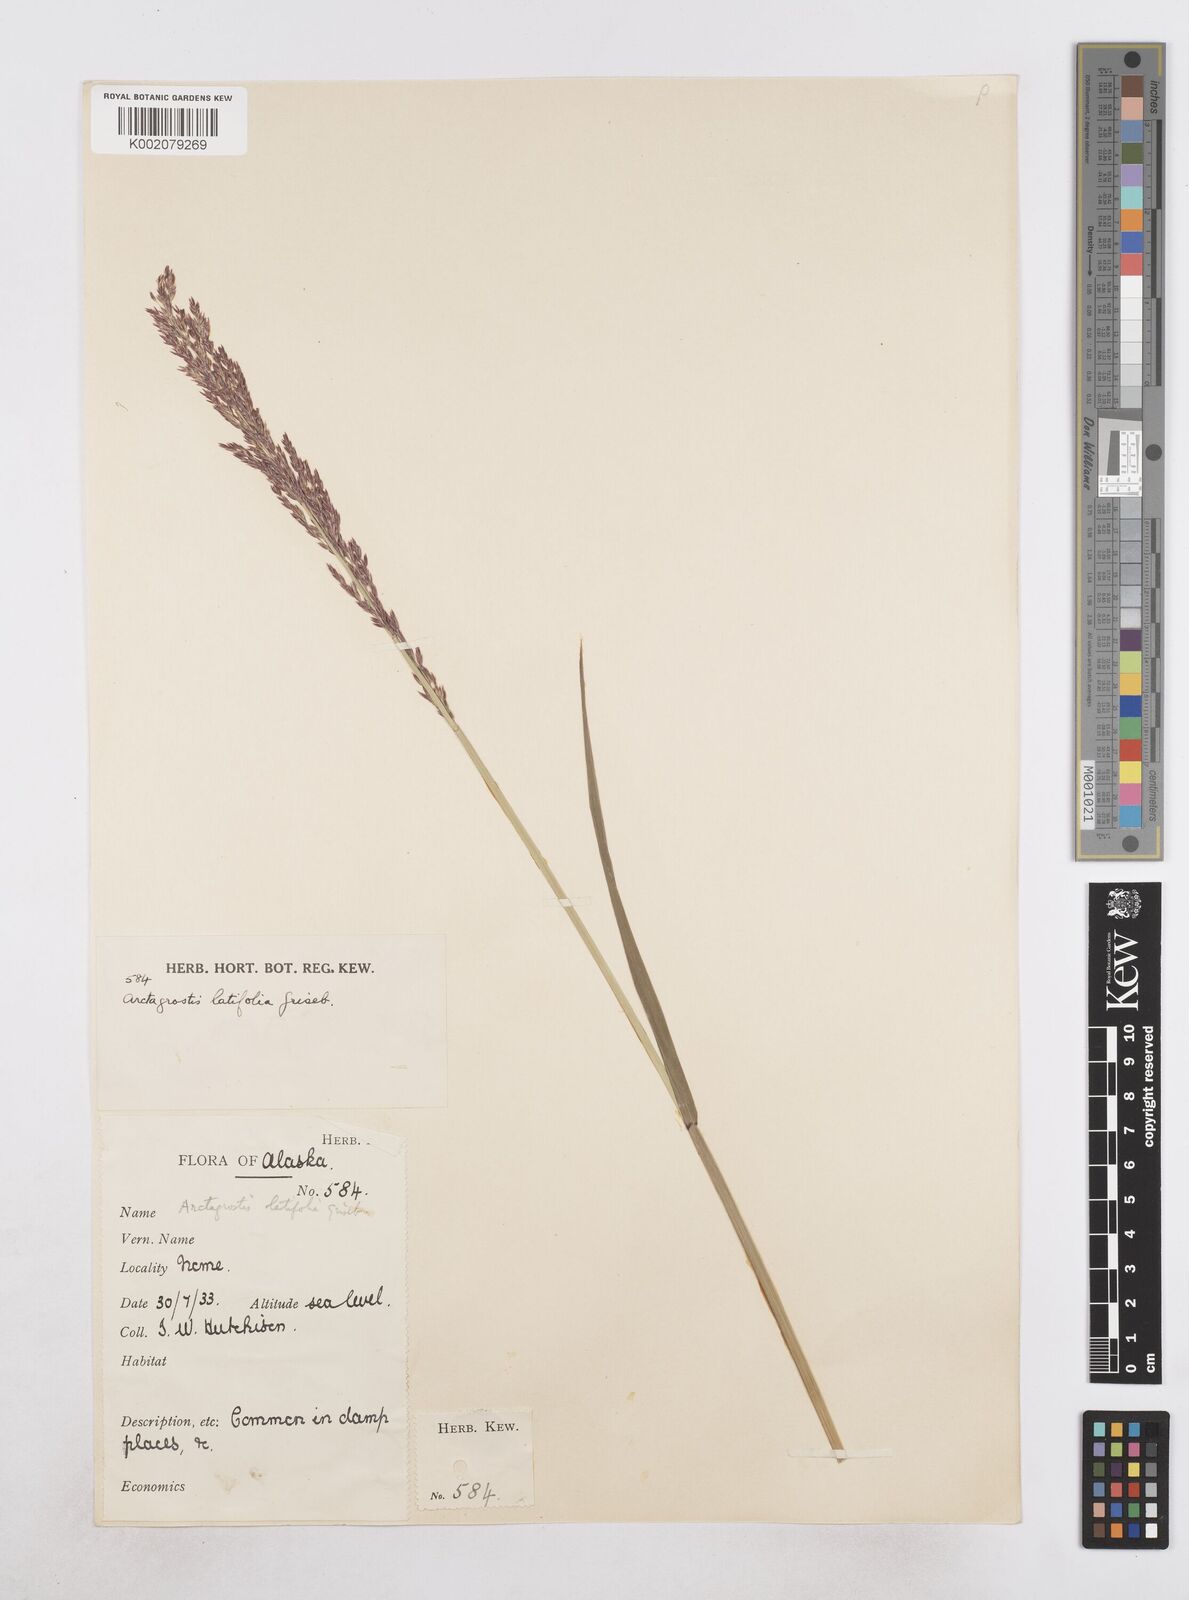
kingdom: Plantae
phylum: Tracheophyta
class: Liliopsida
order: Poales
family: Poaceae
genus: Arctagrostis
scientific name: Arctagrostis latifolia
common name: Arctic grass
